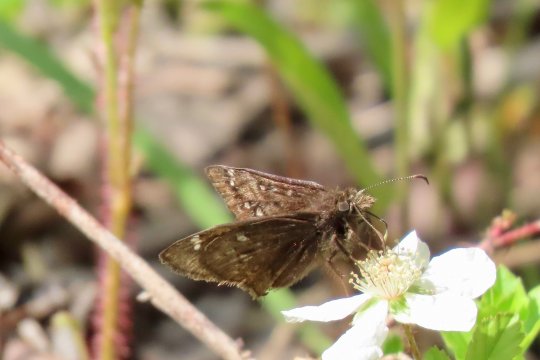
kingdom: Animalia
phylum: Arthropoda
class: Insecta
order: Lepidoptera
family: Hesperiidae
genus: Gesta
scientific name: Gesta
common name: Juvenal's Duskywing
